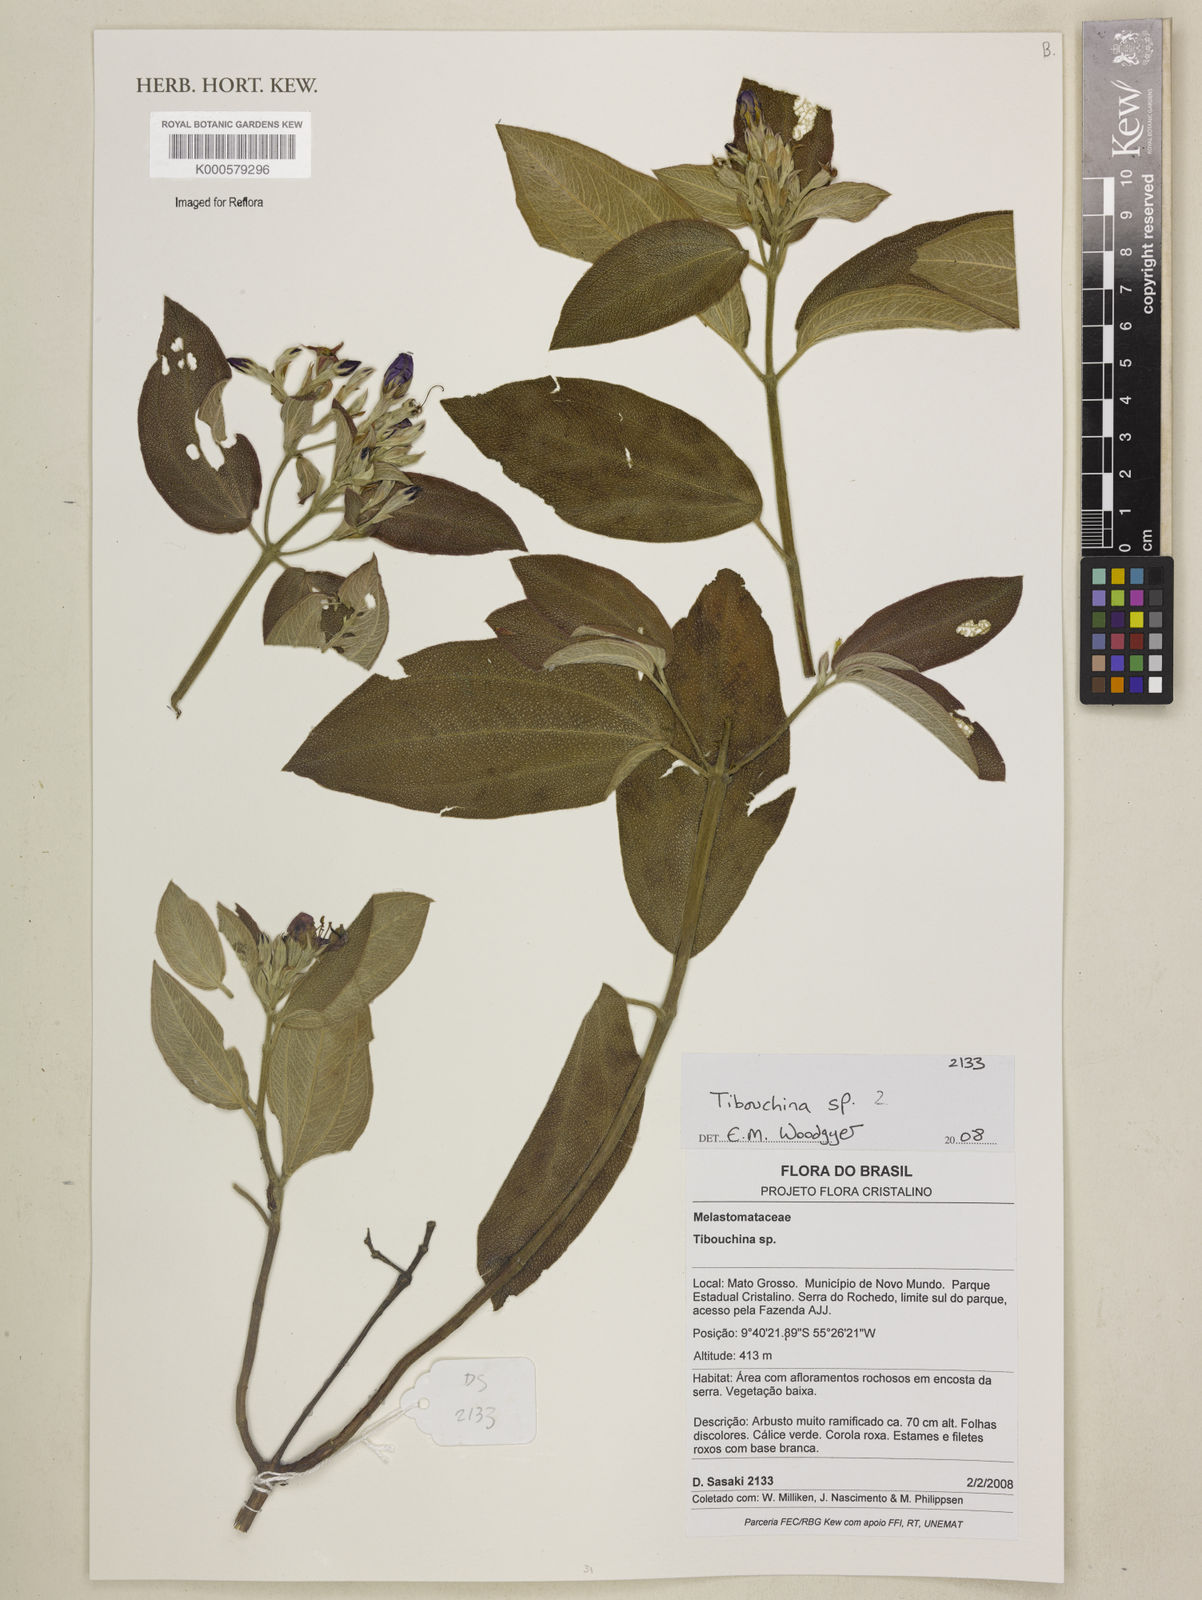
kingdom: Plantae
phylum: Tracheophyta
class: Magnoliopsida
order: Myrtales
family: Melastomataceae
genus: Tibouchina
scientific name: Tibouchina
